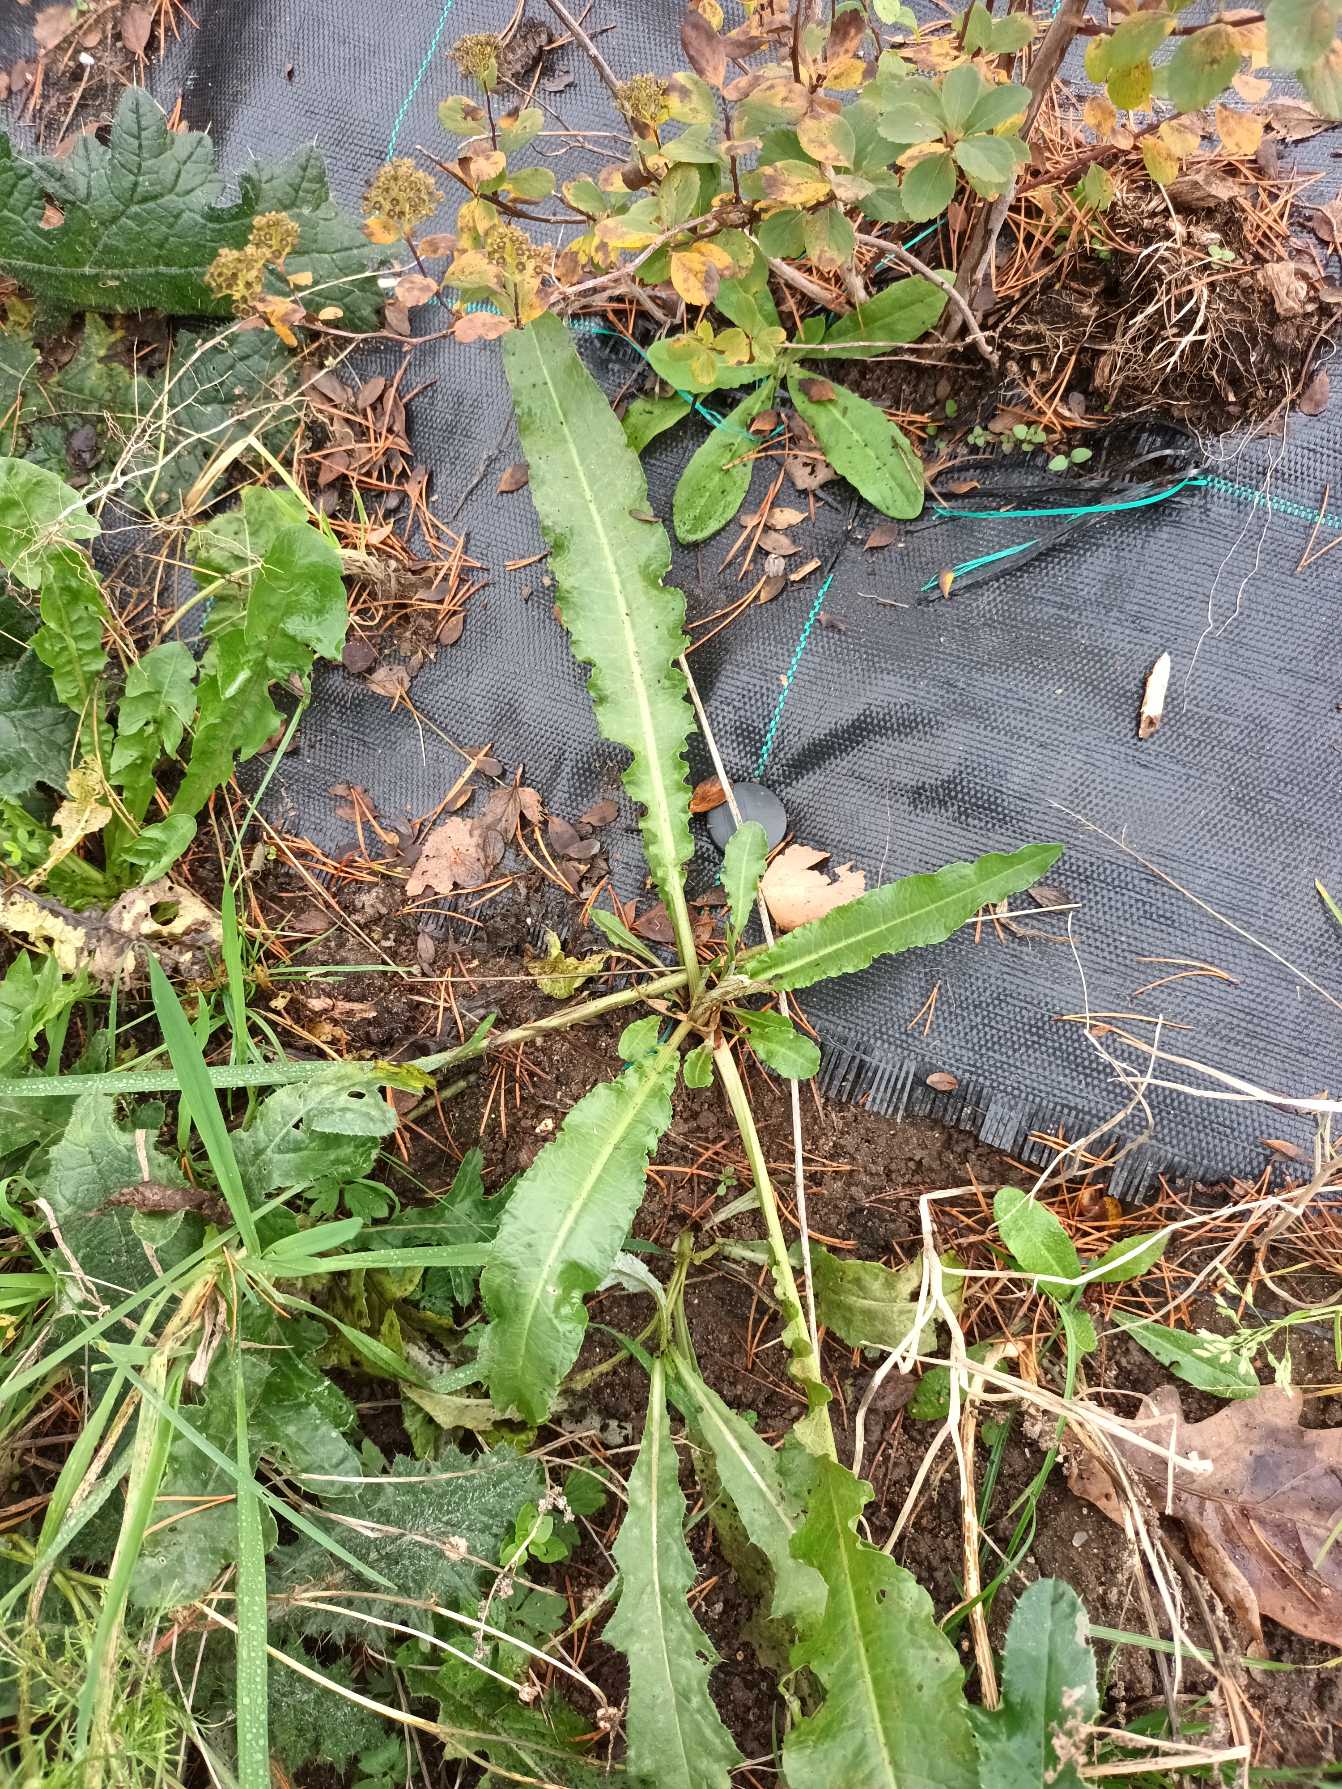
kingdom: Plantae
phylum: Tracheophyta
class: Magnoliopsida
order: Caryophyllales
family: Polygonaceae
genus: Rumex
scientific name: Rumex crispus
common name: Kruset skræppe
